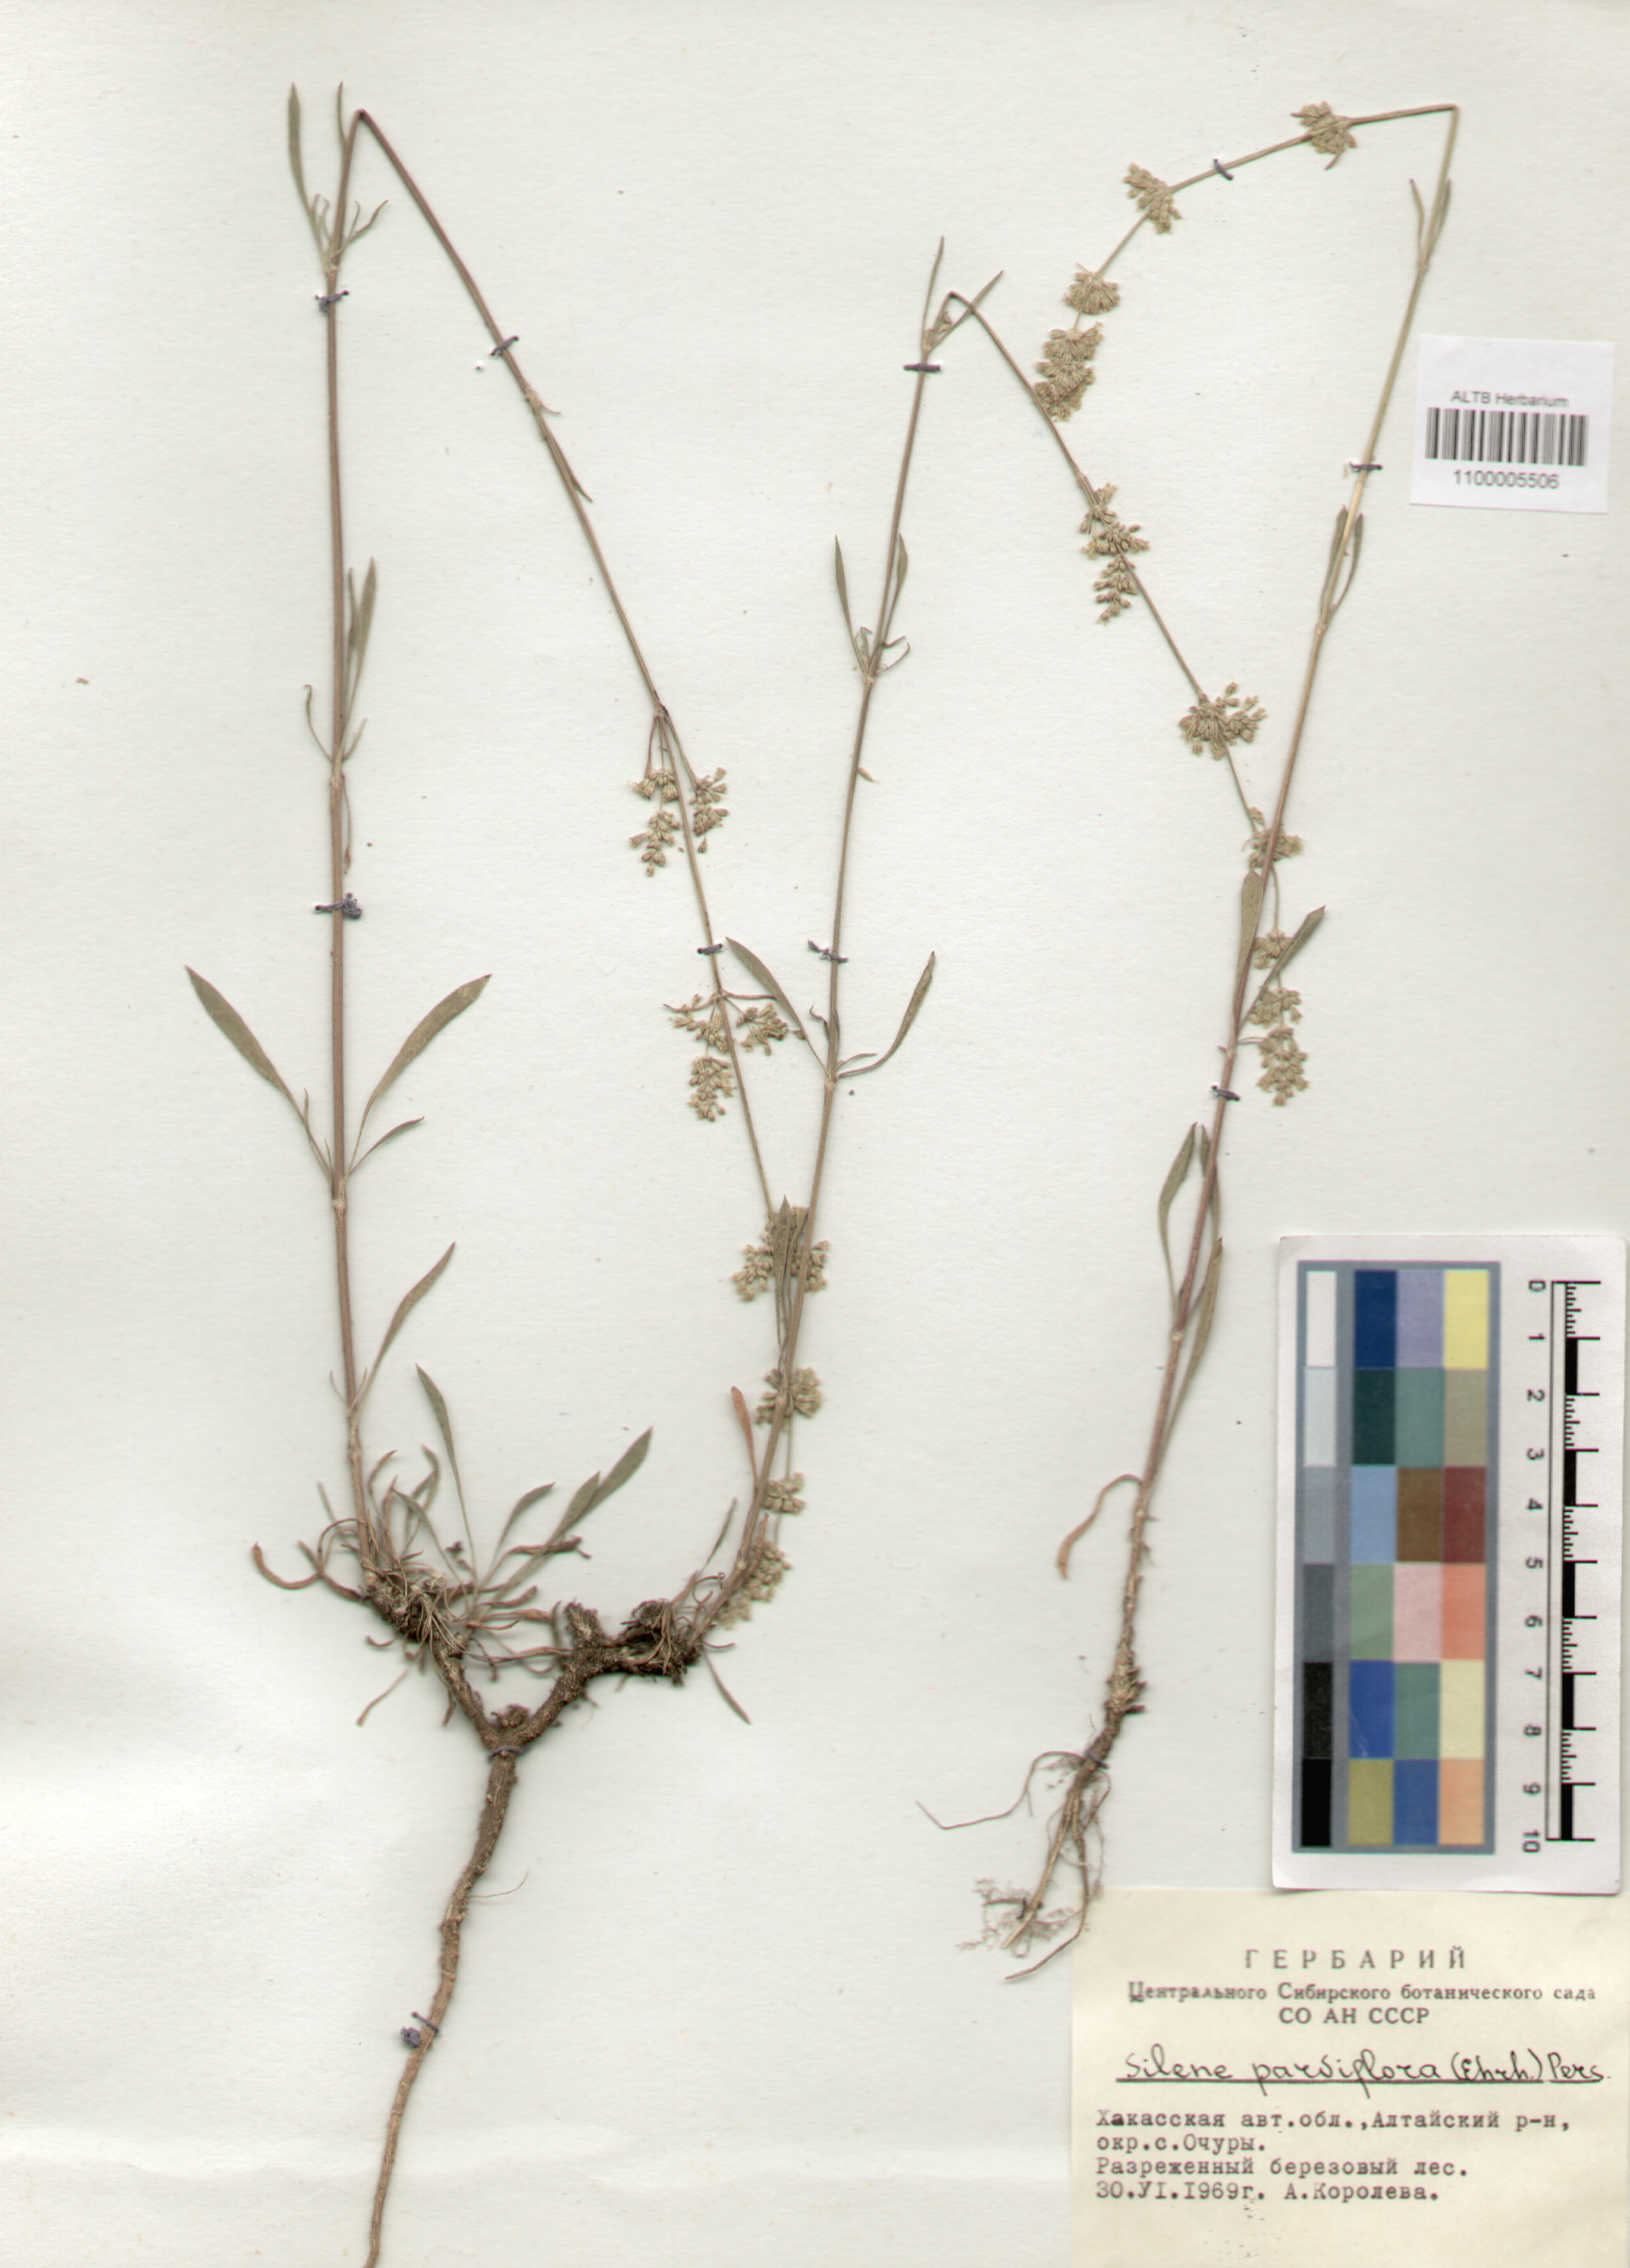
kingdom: Plantae
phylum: Tracheophyta
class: Magnoliopsida
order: Caryophyllales
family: Caryophyllaceae
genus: Silene
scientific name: Silene borysthenica
